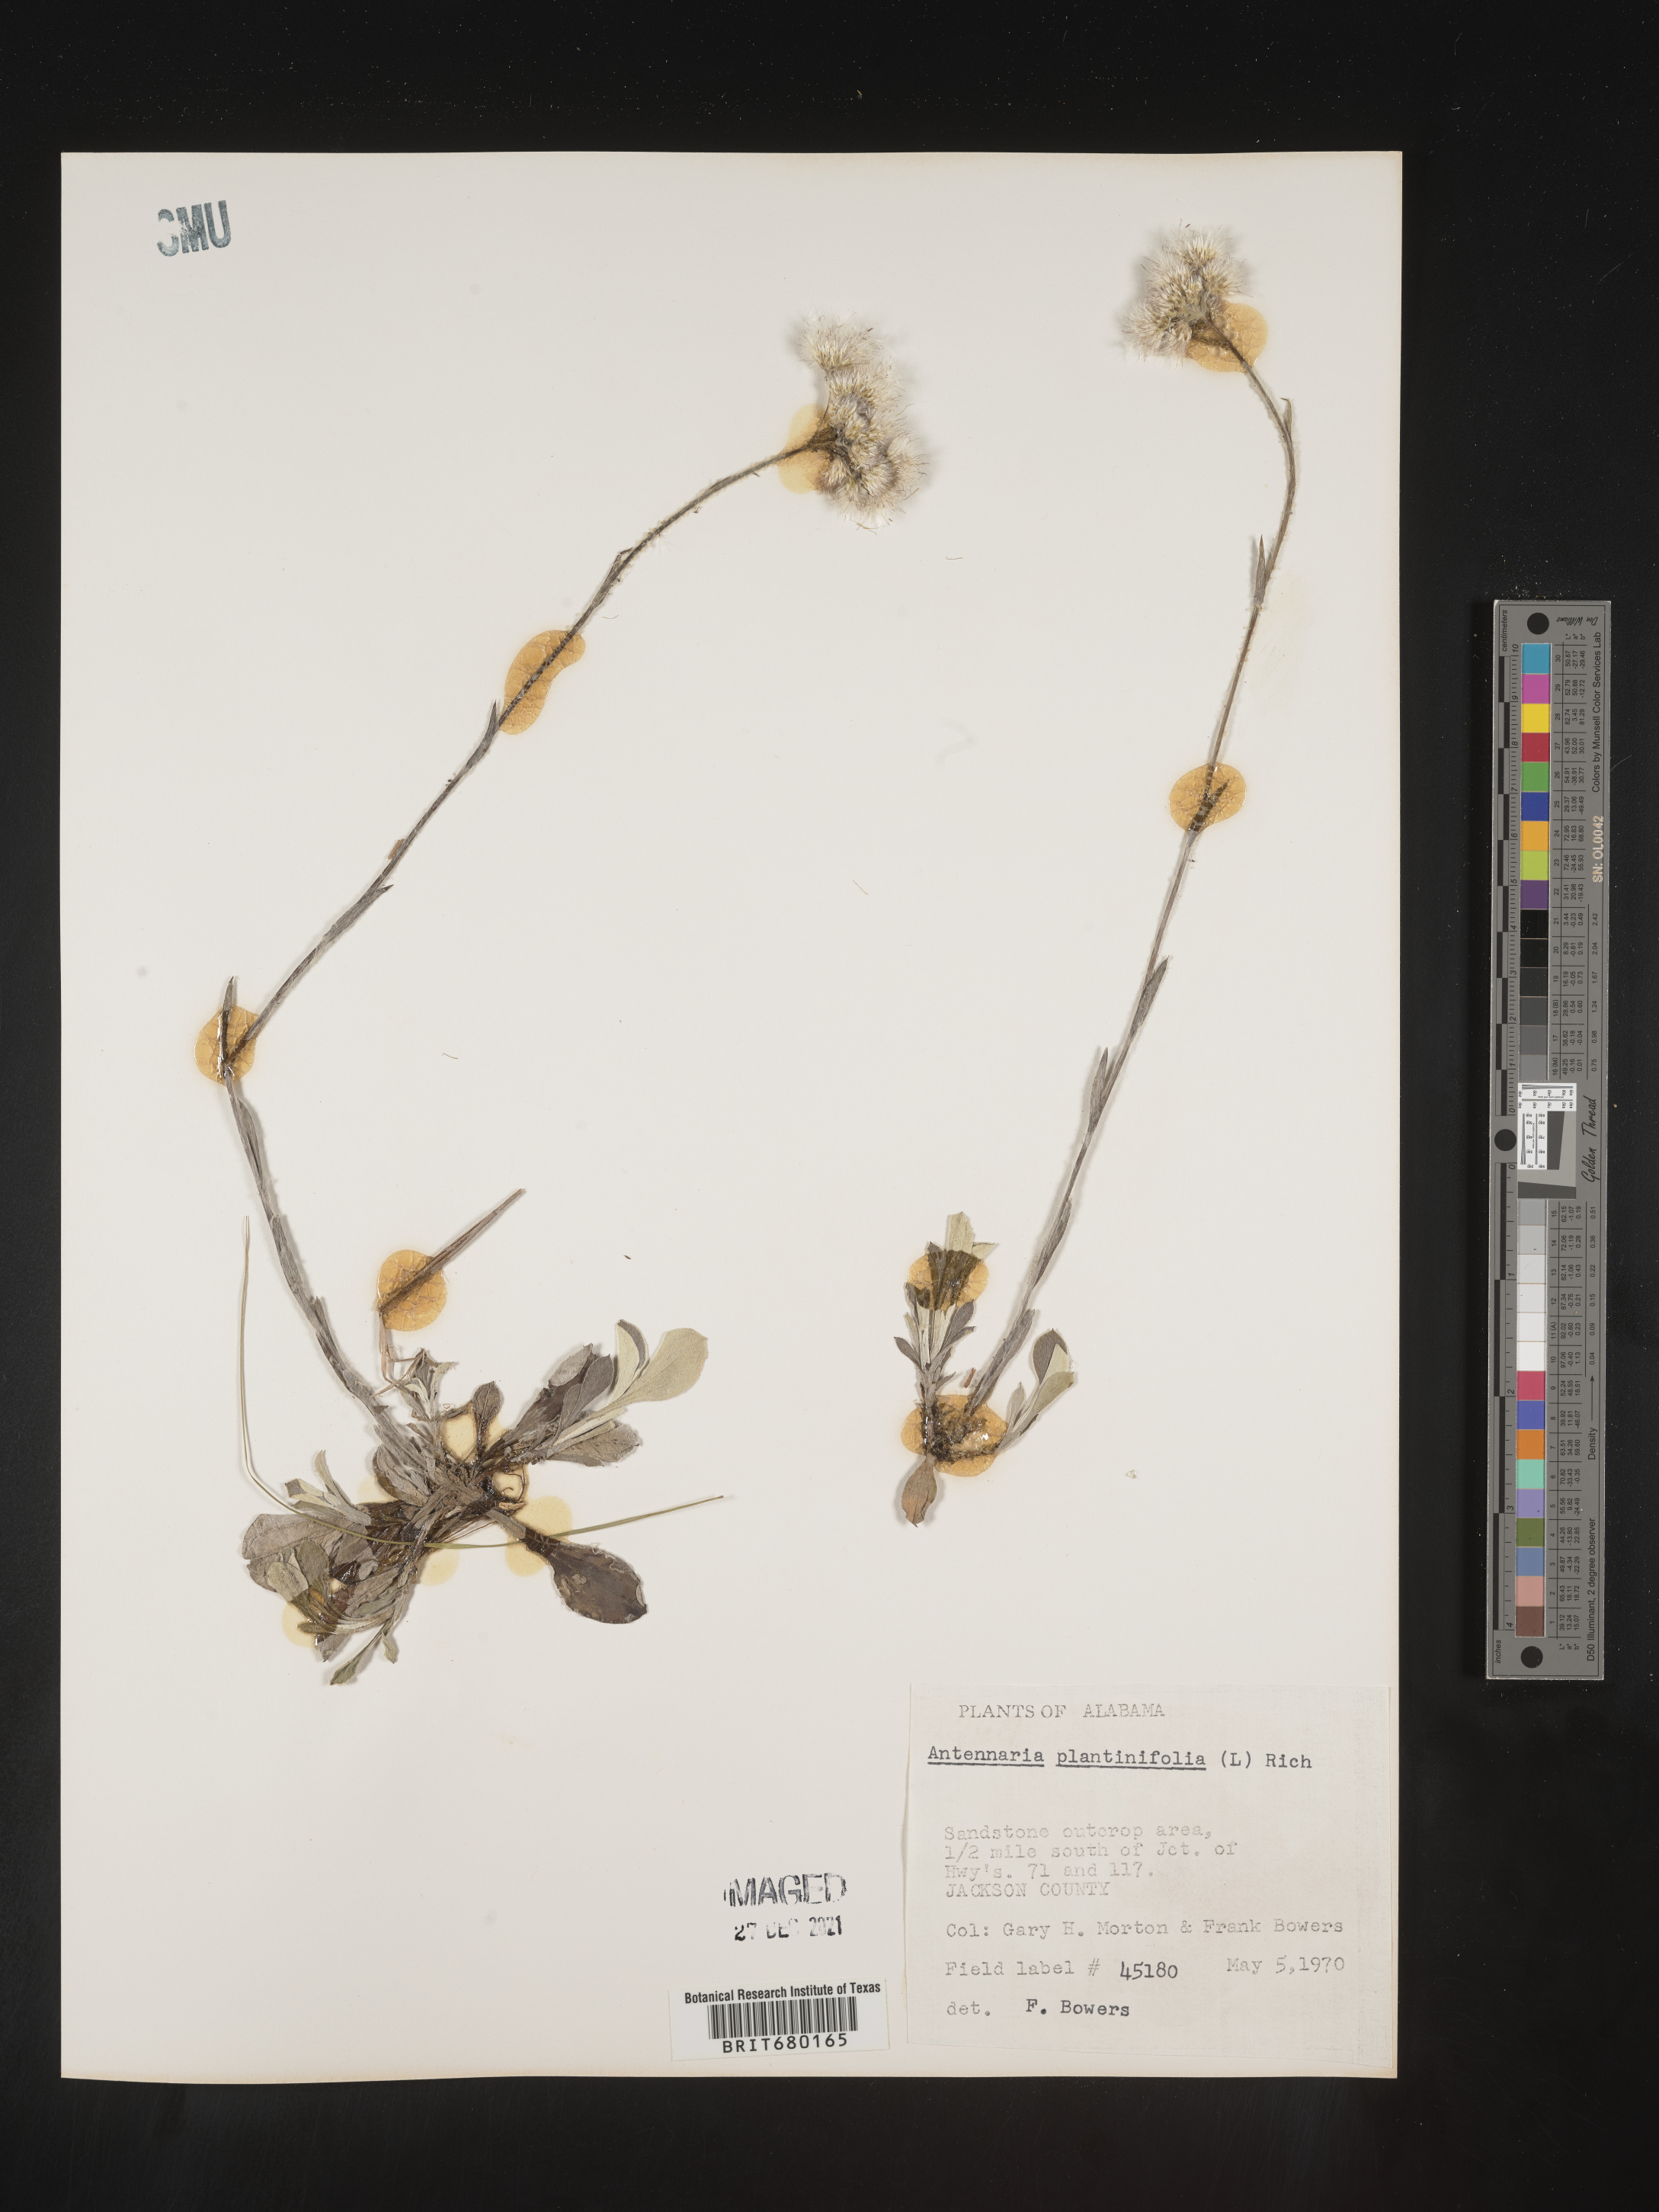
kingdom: Plantae
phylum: Tracheophyta
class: Magnoliopsida
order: Asterales
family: Asteraceae
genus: Antennaria
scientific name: Antennaria plantaginifolia
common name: Plantain-leaved pussytoes
